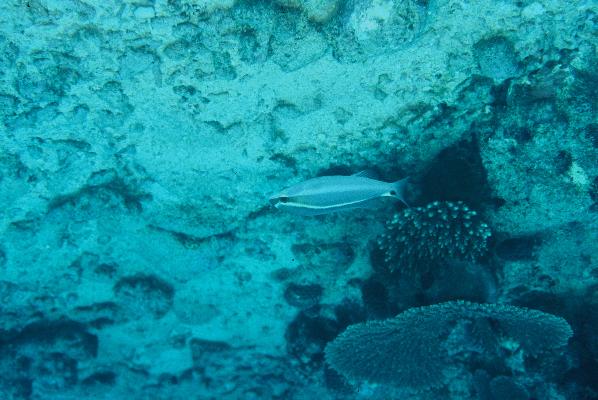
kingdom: Animalia
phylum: Chordata
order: Perciformes
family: Nemipteridae
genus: Scolopsis
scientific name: Scolopsis frenata
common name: Bridled monocle bream
